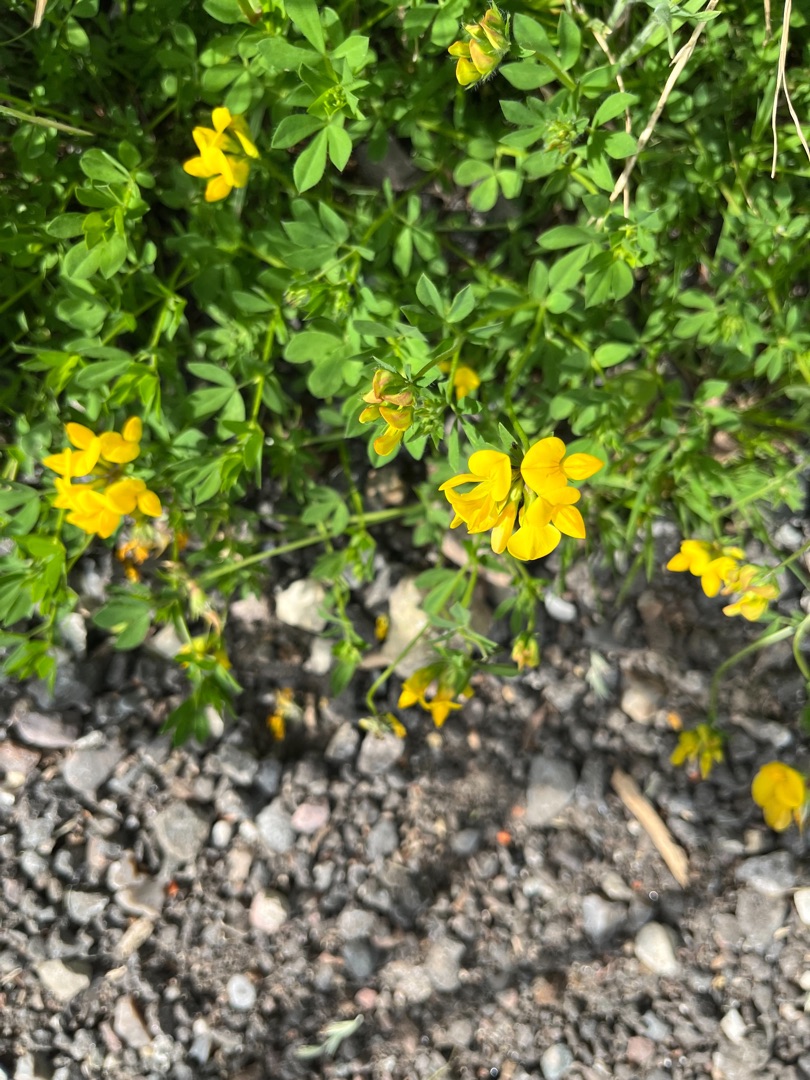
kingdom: Plantae
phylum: Tracheophyta
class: Magnoliopsida
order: Fabales
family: Fabaceae
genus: Lotus
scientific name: Lotus corniculatus
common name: Almindelig kællingetand
